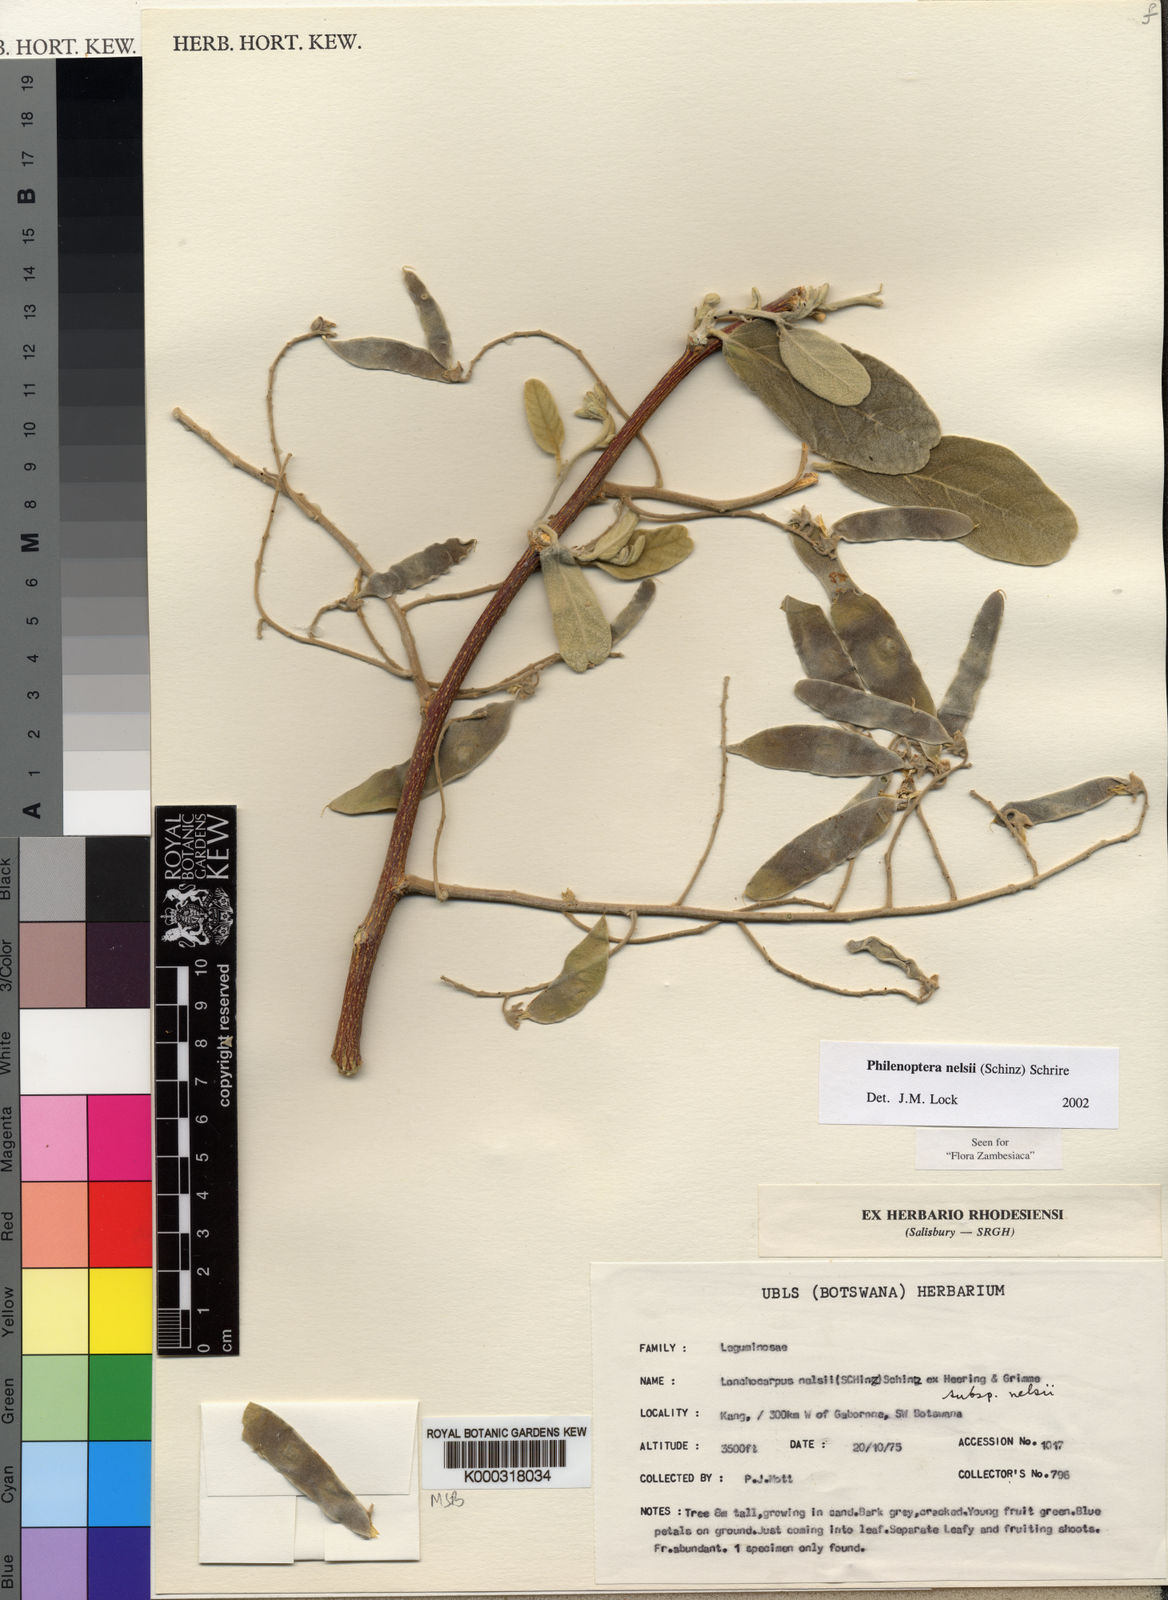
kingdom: Plantae
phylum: Tracheophyta
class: Magnoliopsida
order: Fabales
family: Fabaceae
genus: Philenoptera
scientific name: Philenoptera nelsii
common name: Kalahari apple-leaf
